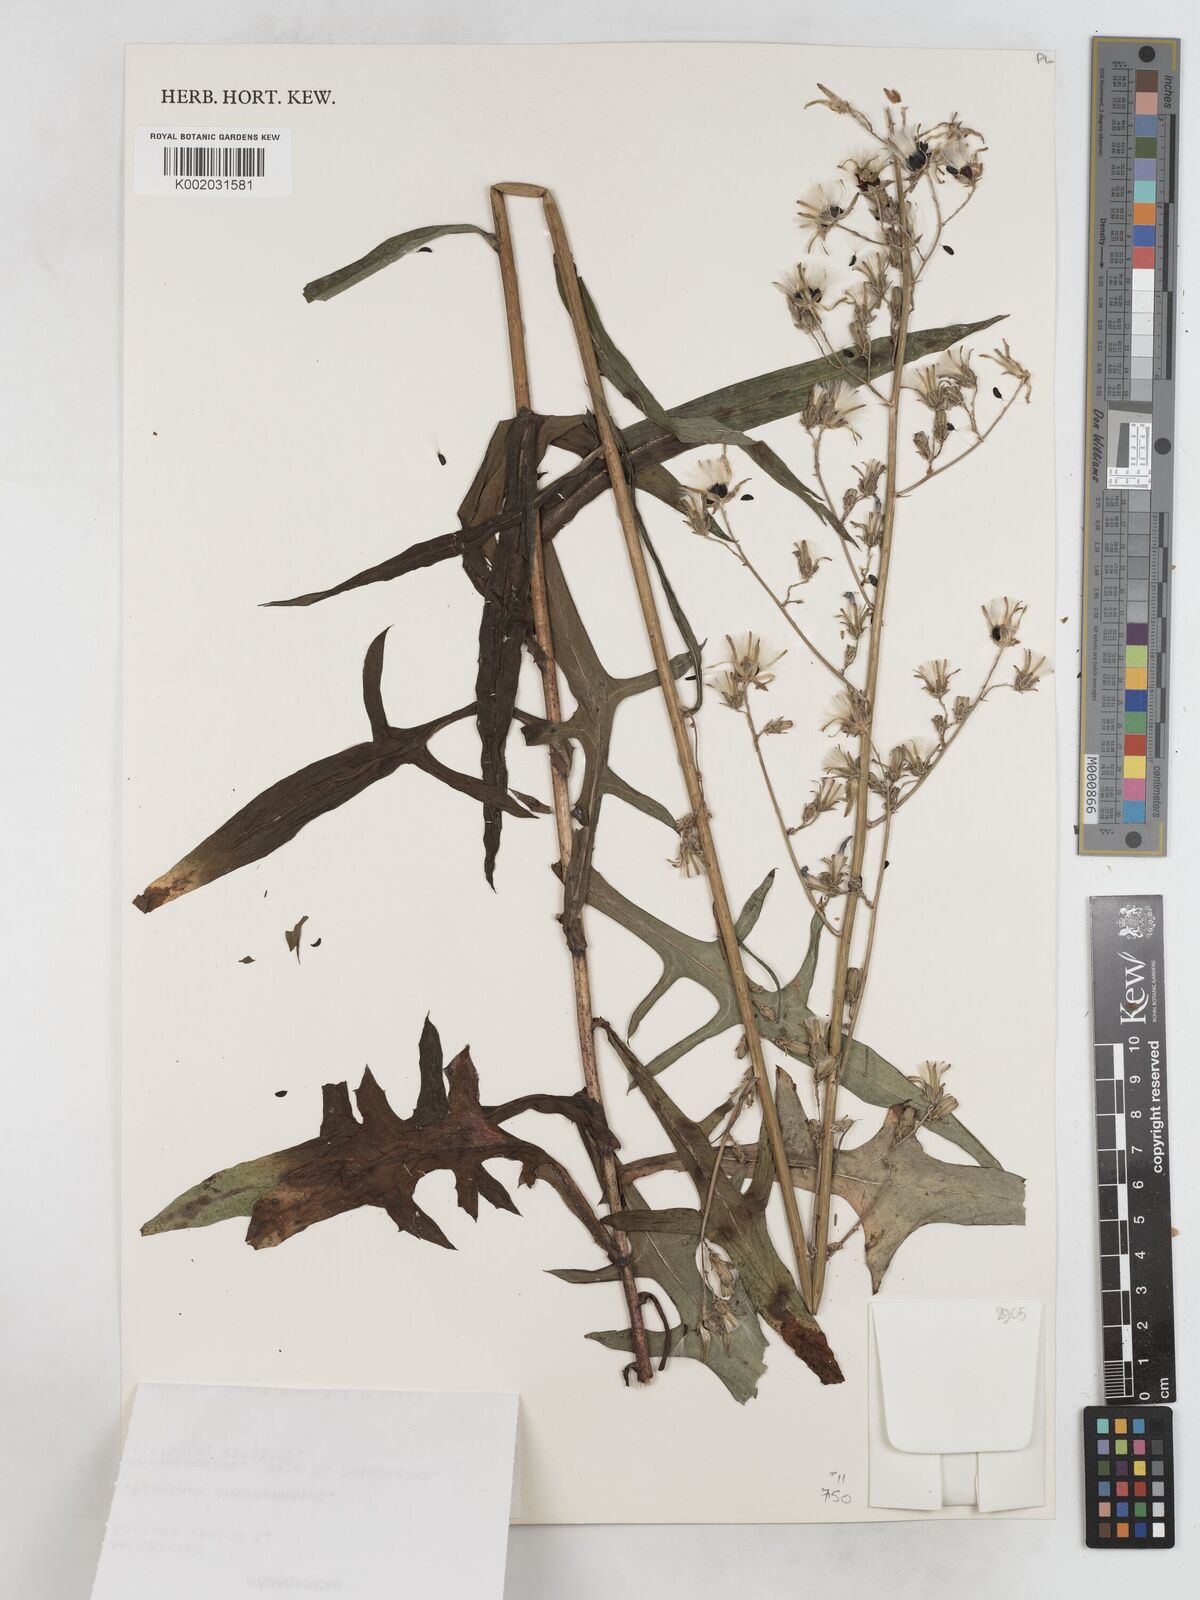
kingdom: Plantae
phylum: Tracheophyta
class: Magnoliopsida
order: Asterales
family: Asteraceae
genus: Lactuca
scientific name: Lactuca indica
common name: Wild lettuce
